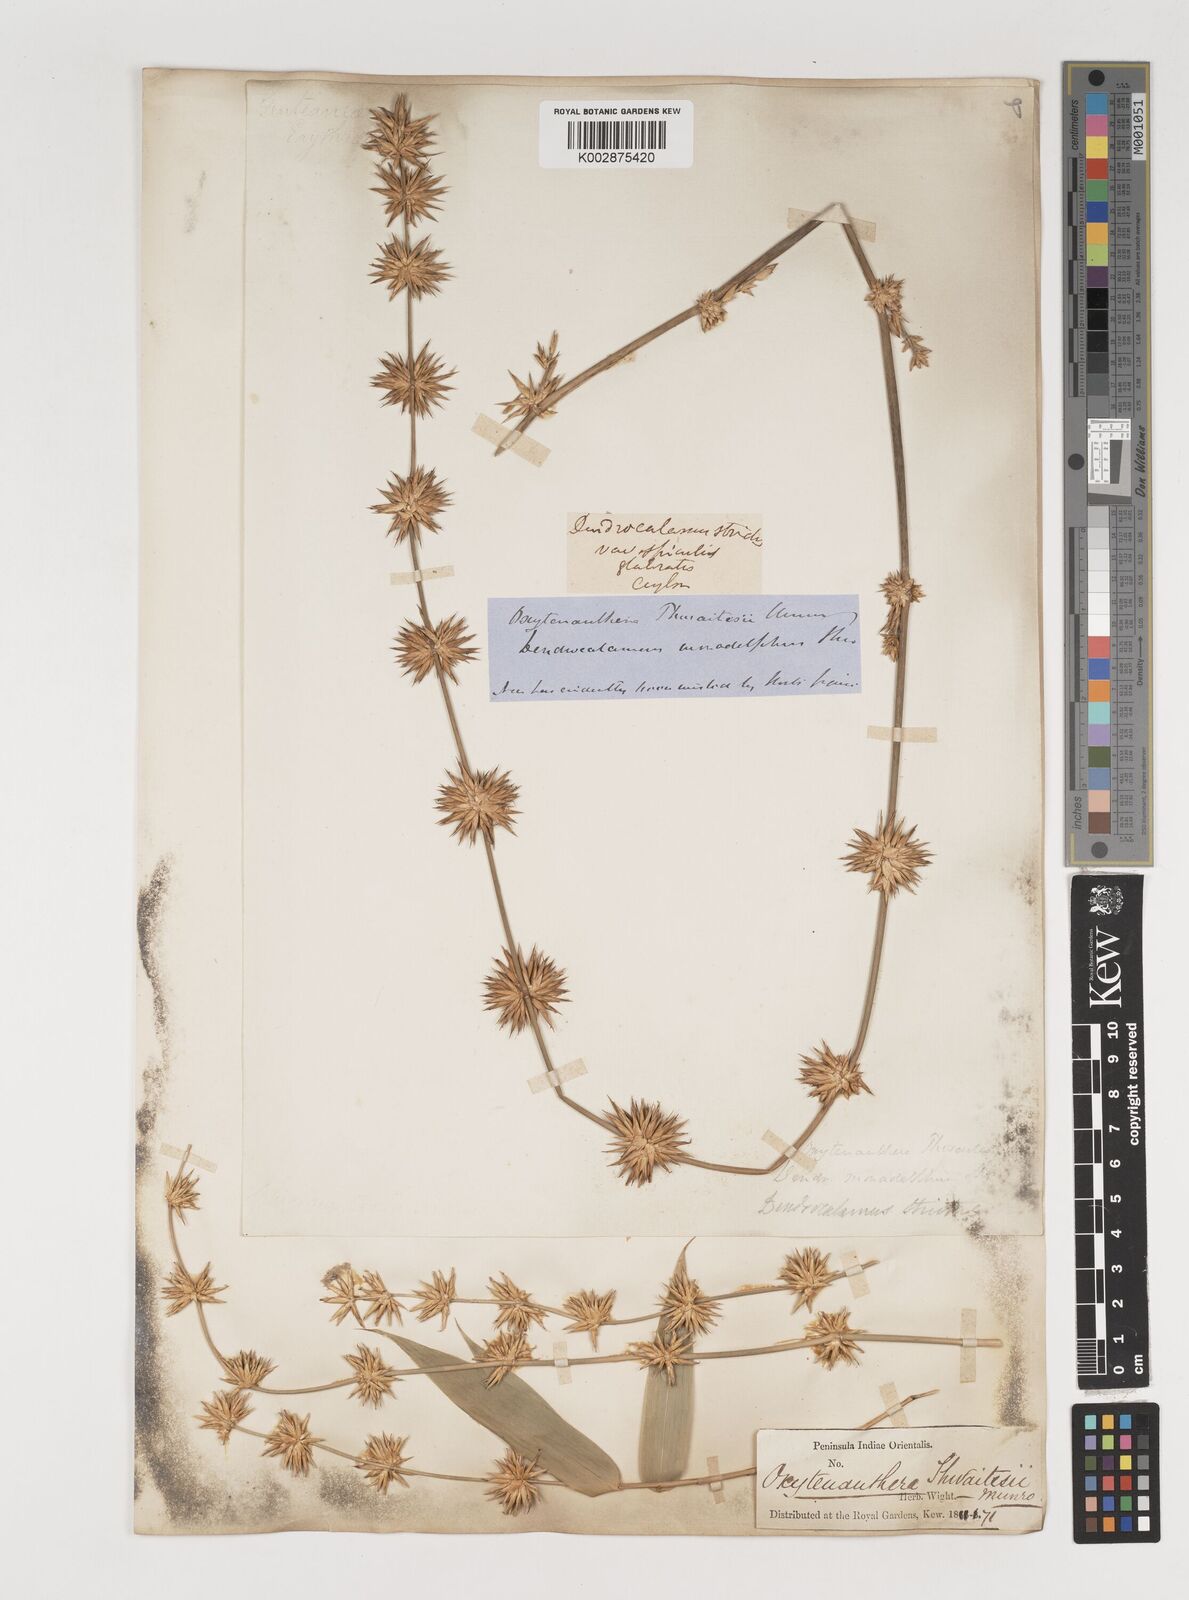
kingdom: Plantae
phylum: Tracheophyta
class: Liliopsida
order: Poales
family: Poaceae
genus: Dendrocalamus
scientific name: Dendrocalamus
